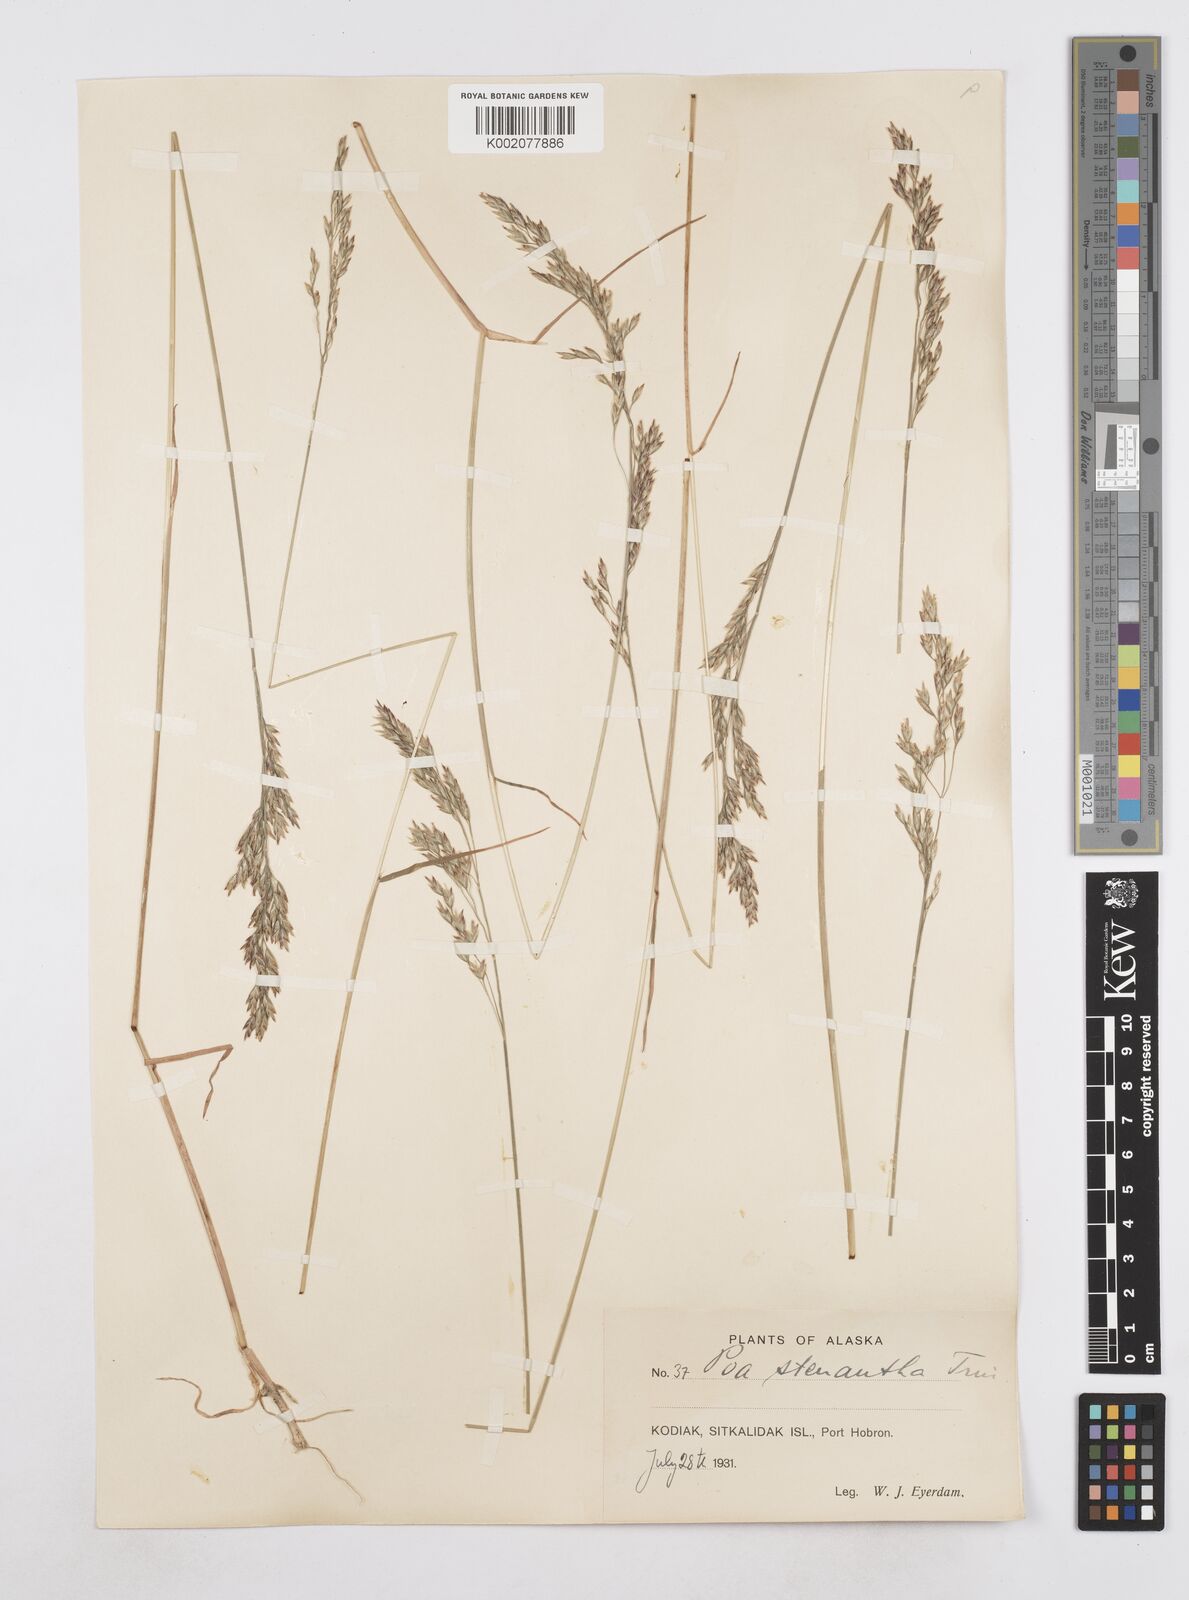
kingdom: Plantae
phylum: Tracheophyta
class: Liliopsida
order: Poales
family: Poaceae
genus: Poa
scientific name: Poa stenantha
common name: Narrow-flowered bluegrass
